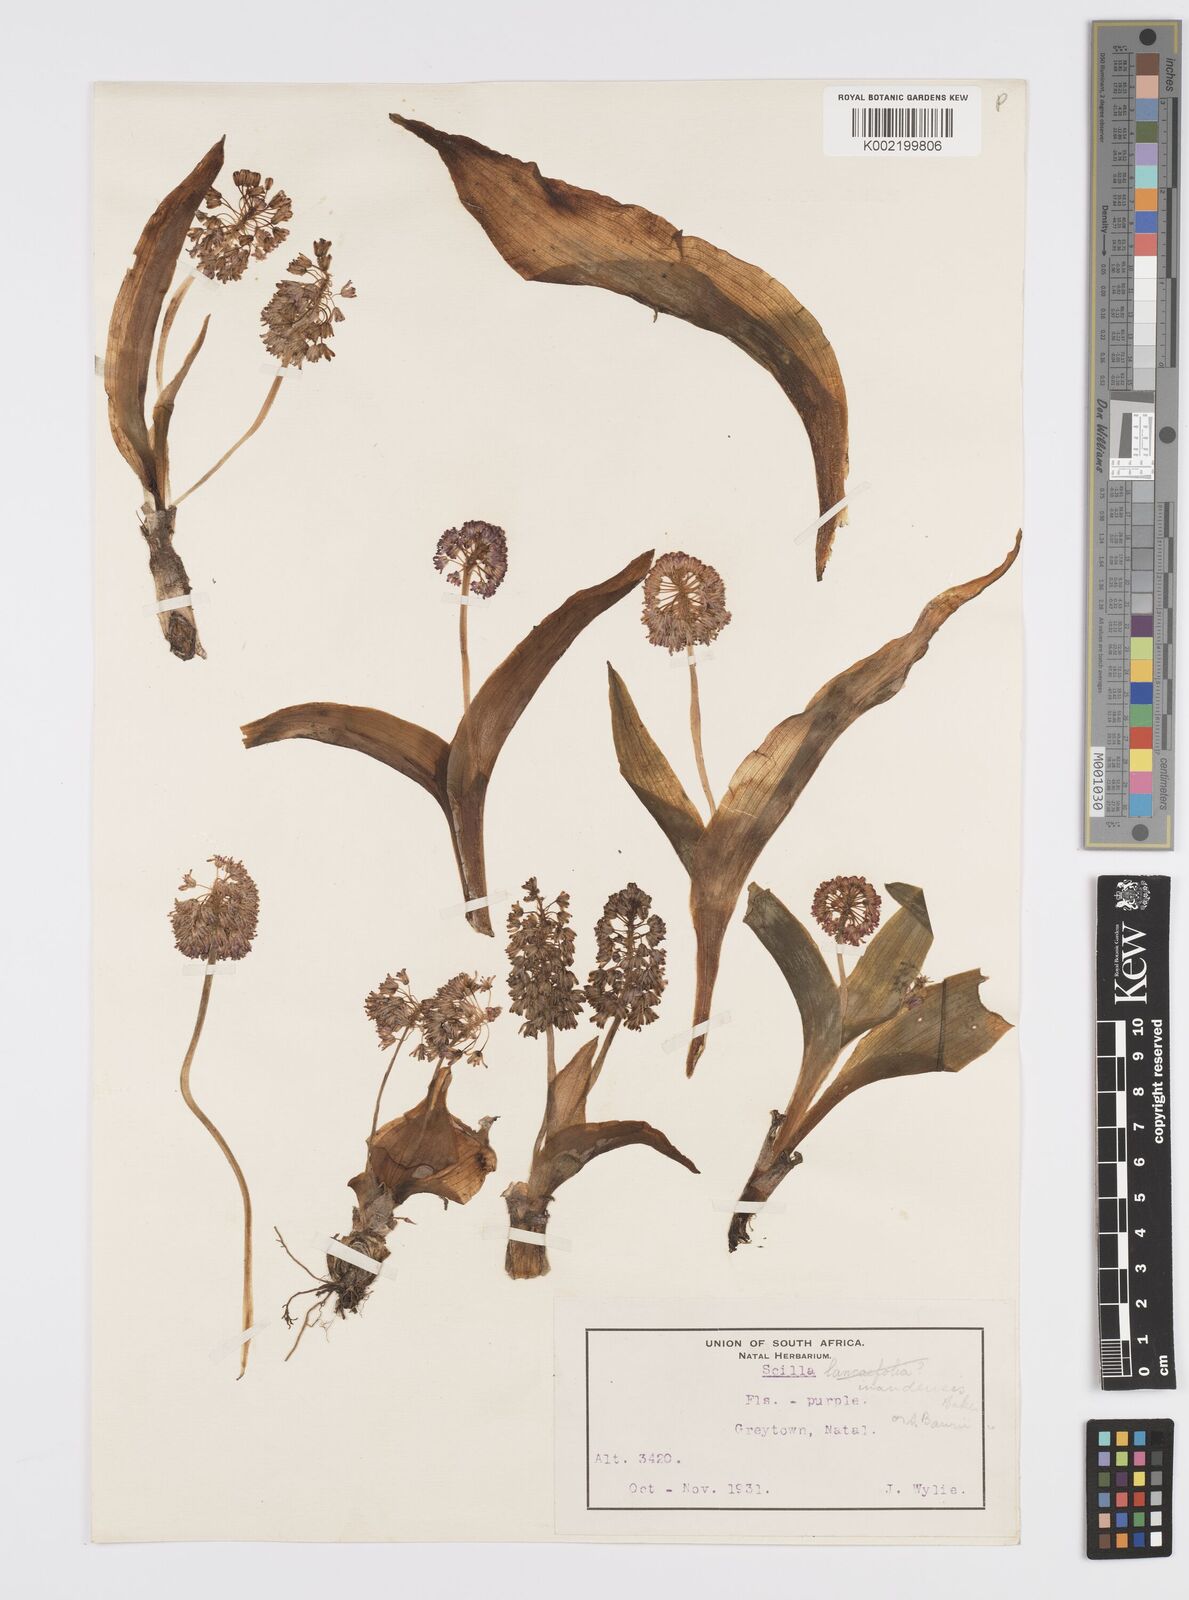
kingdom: Plantae
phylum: Tracheophyta
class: Liliopsida
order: Asparagales
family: Asparagaceae
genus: Ledebouria
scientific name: Ledebouria cooperi
